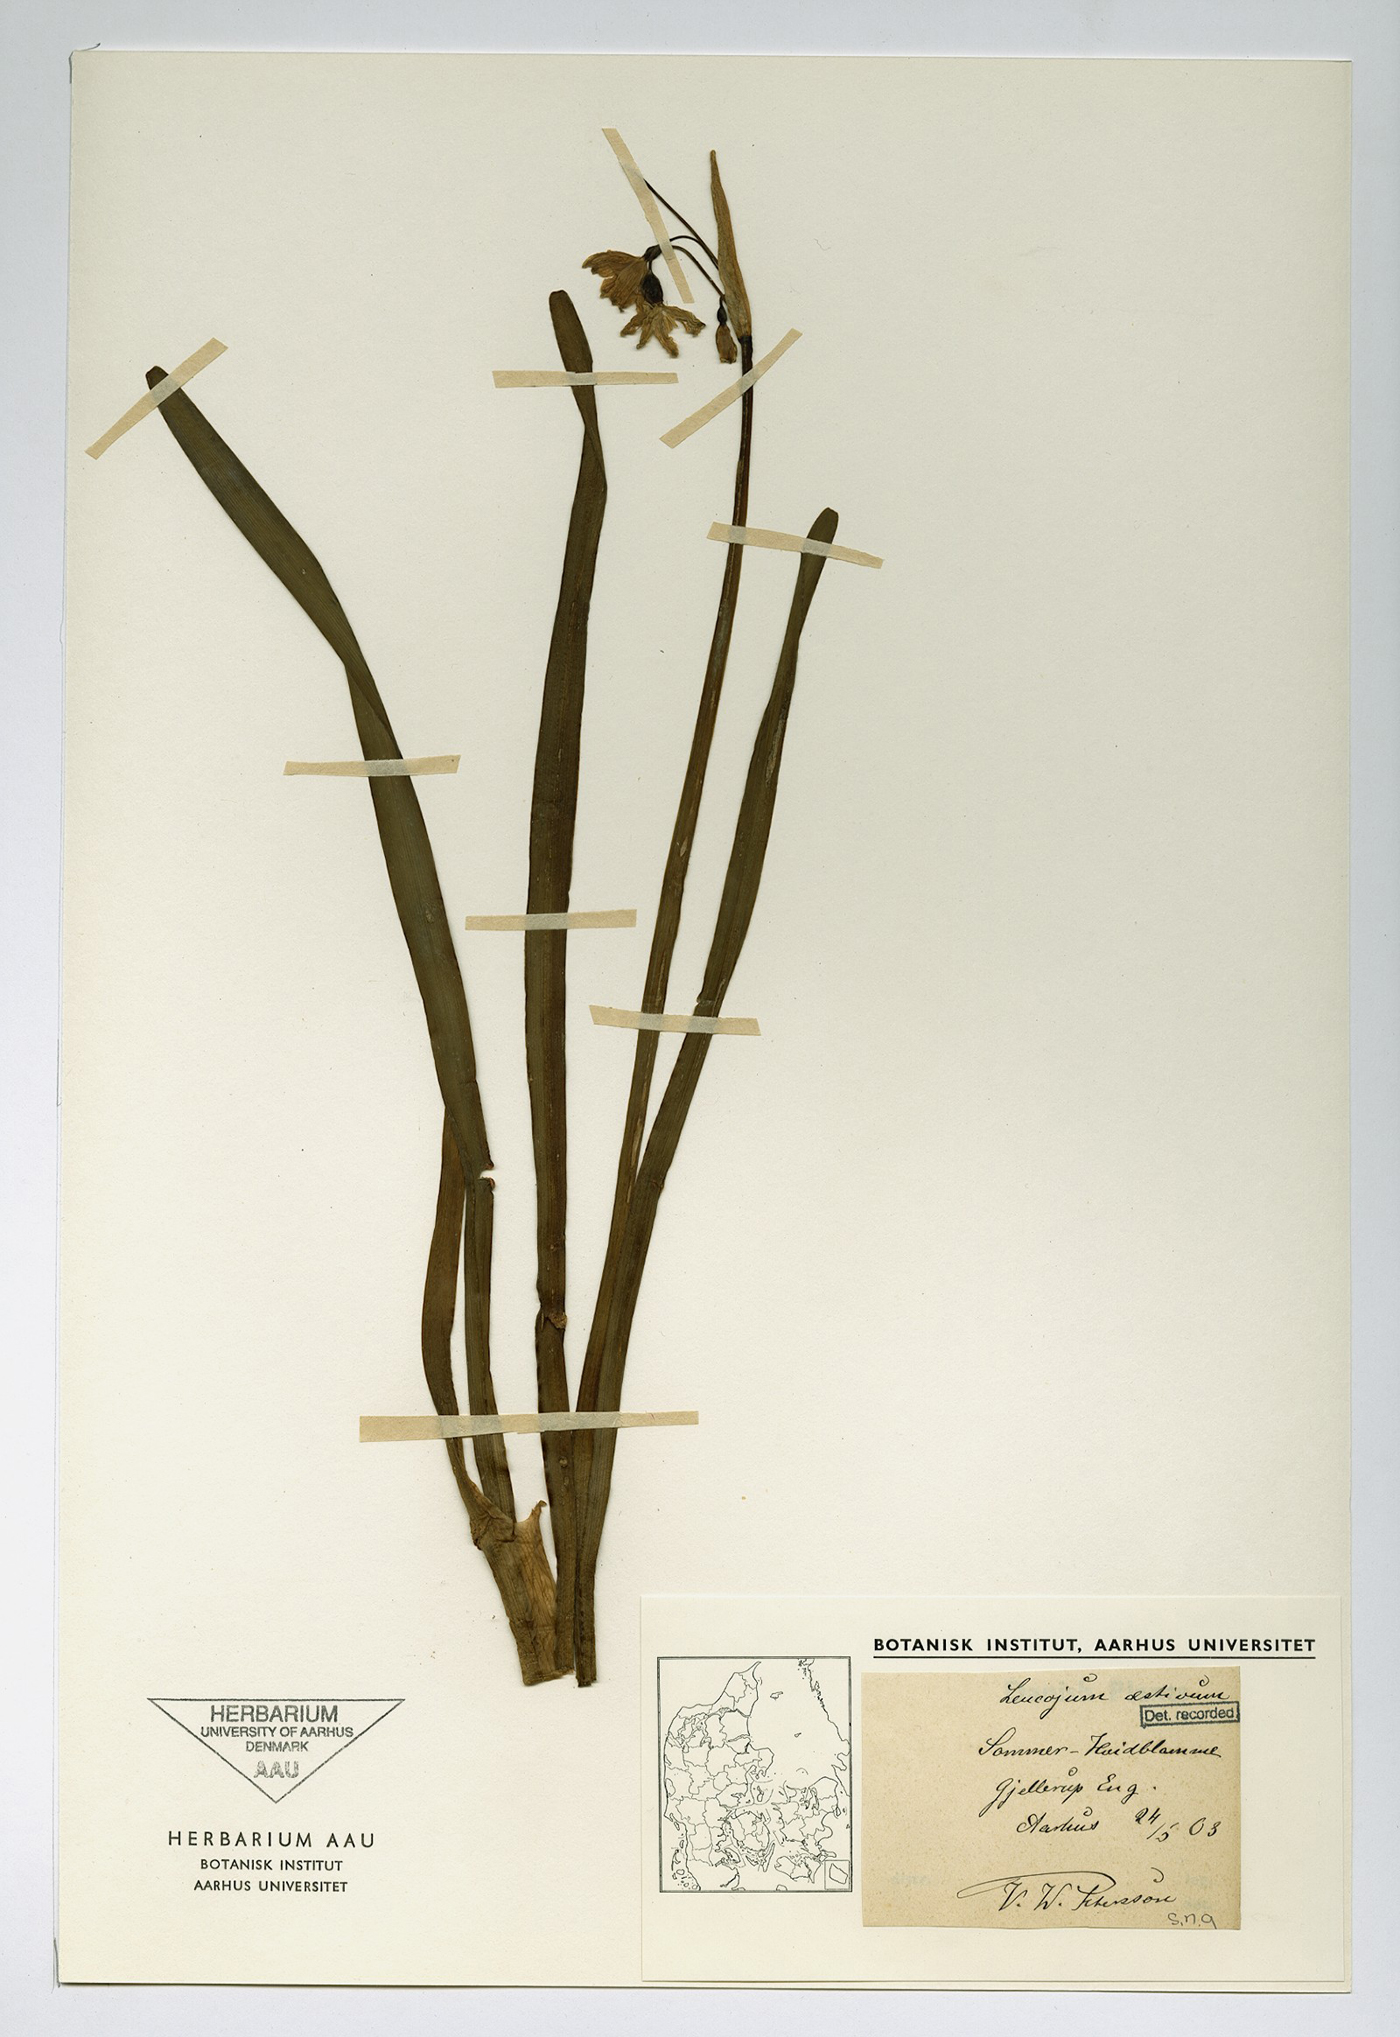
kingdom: Plantae
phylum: Tracheophyta
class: Liliopsida
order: Asparagales
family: Amaryllidaceae
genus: Leucojum
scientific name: Leucojum aestivum
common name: Summer snowflake
